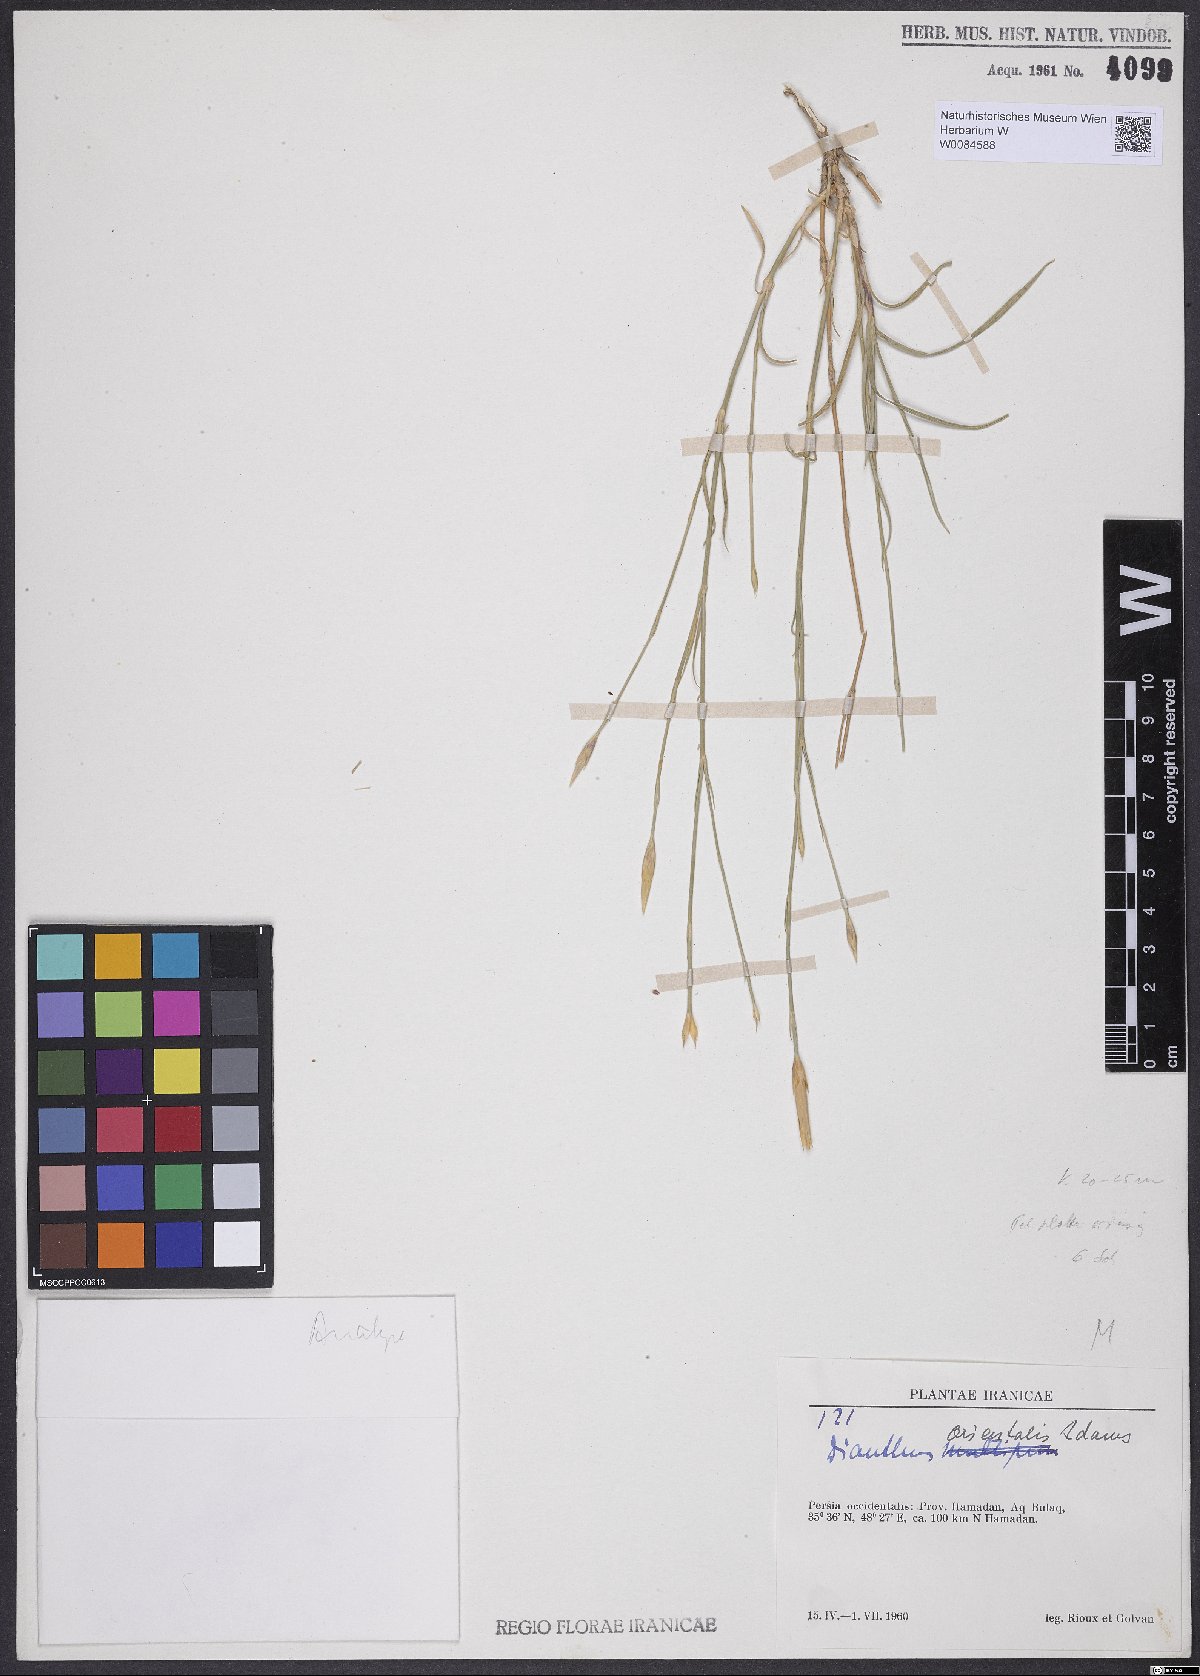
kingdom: Plantae
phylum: Tracheophyta
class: Magnoliopsida
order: Caryophyllales
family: Caryophyllaceae
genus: Dianthus
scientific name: Dianthus orientalis
